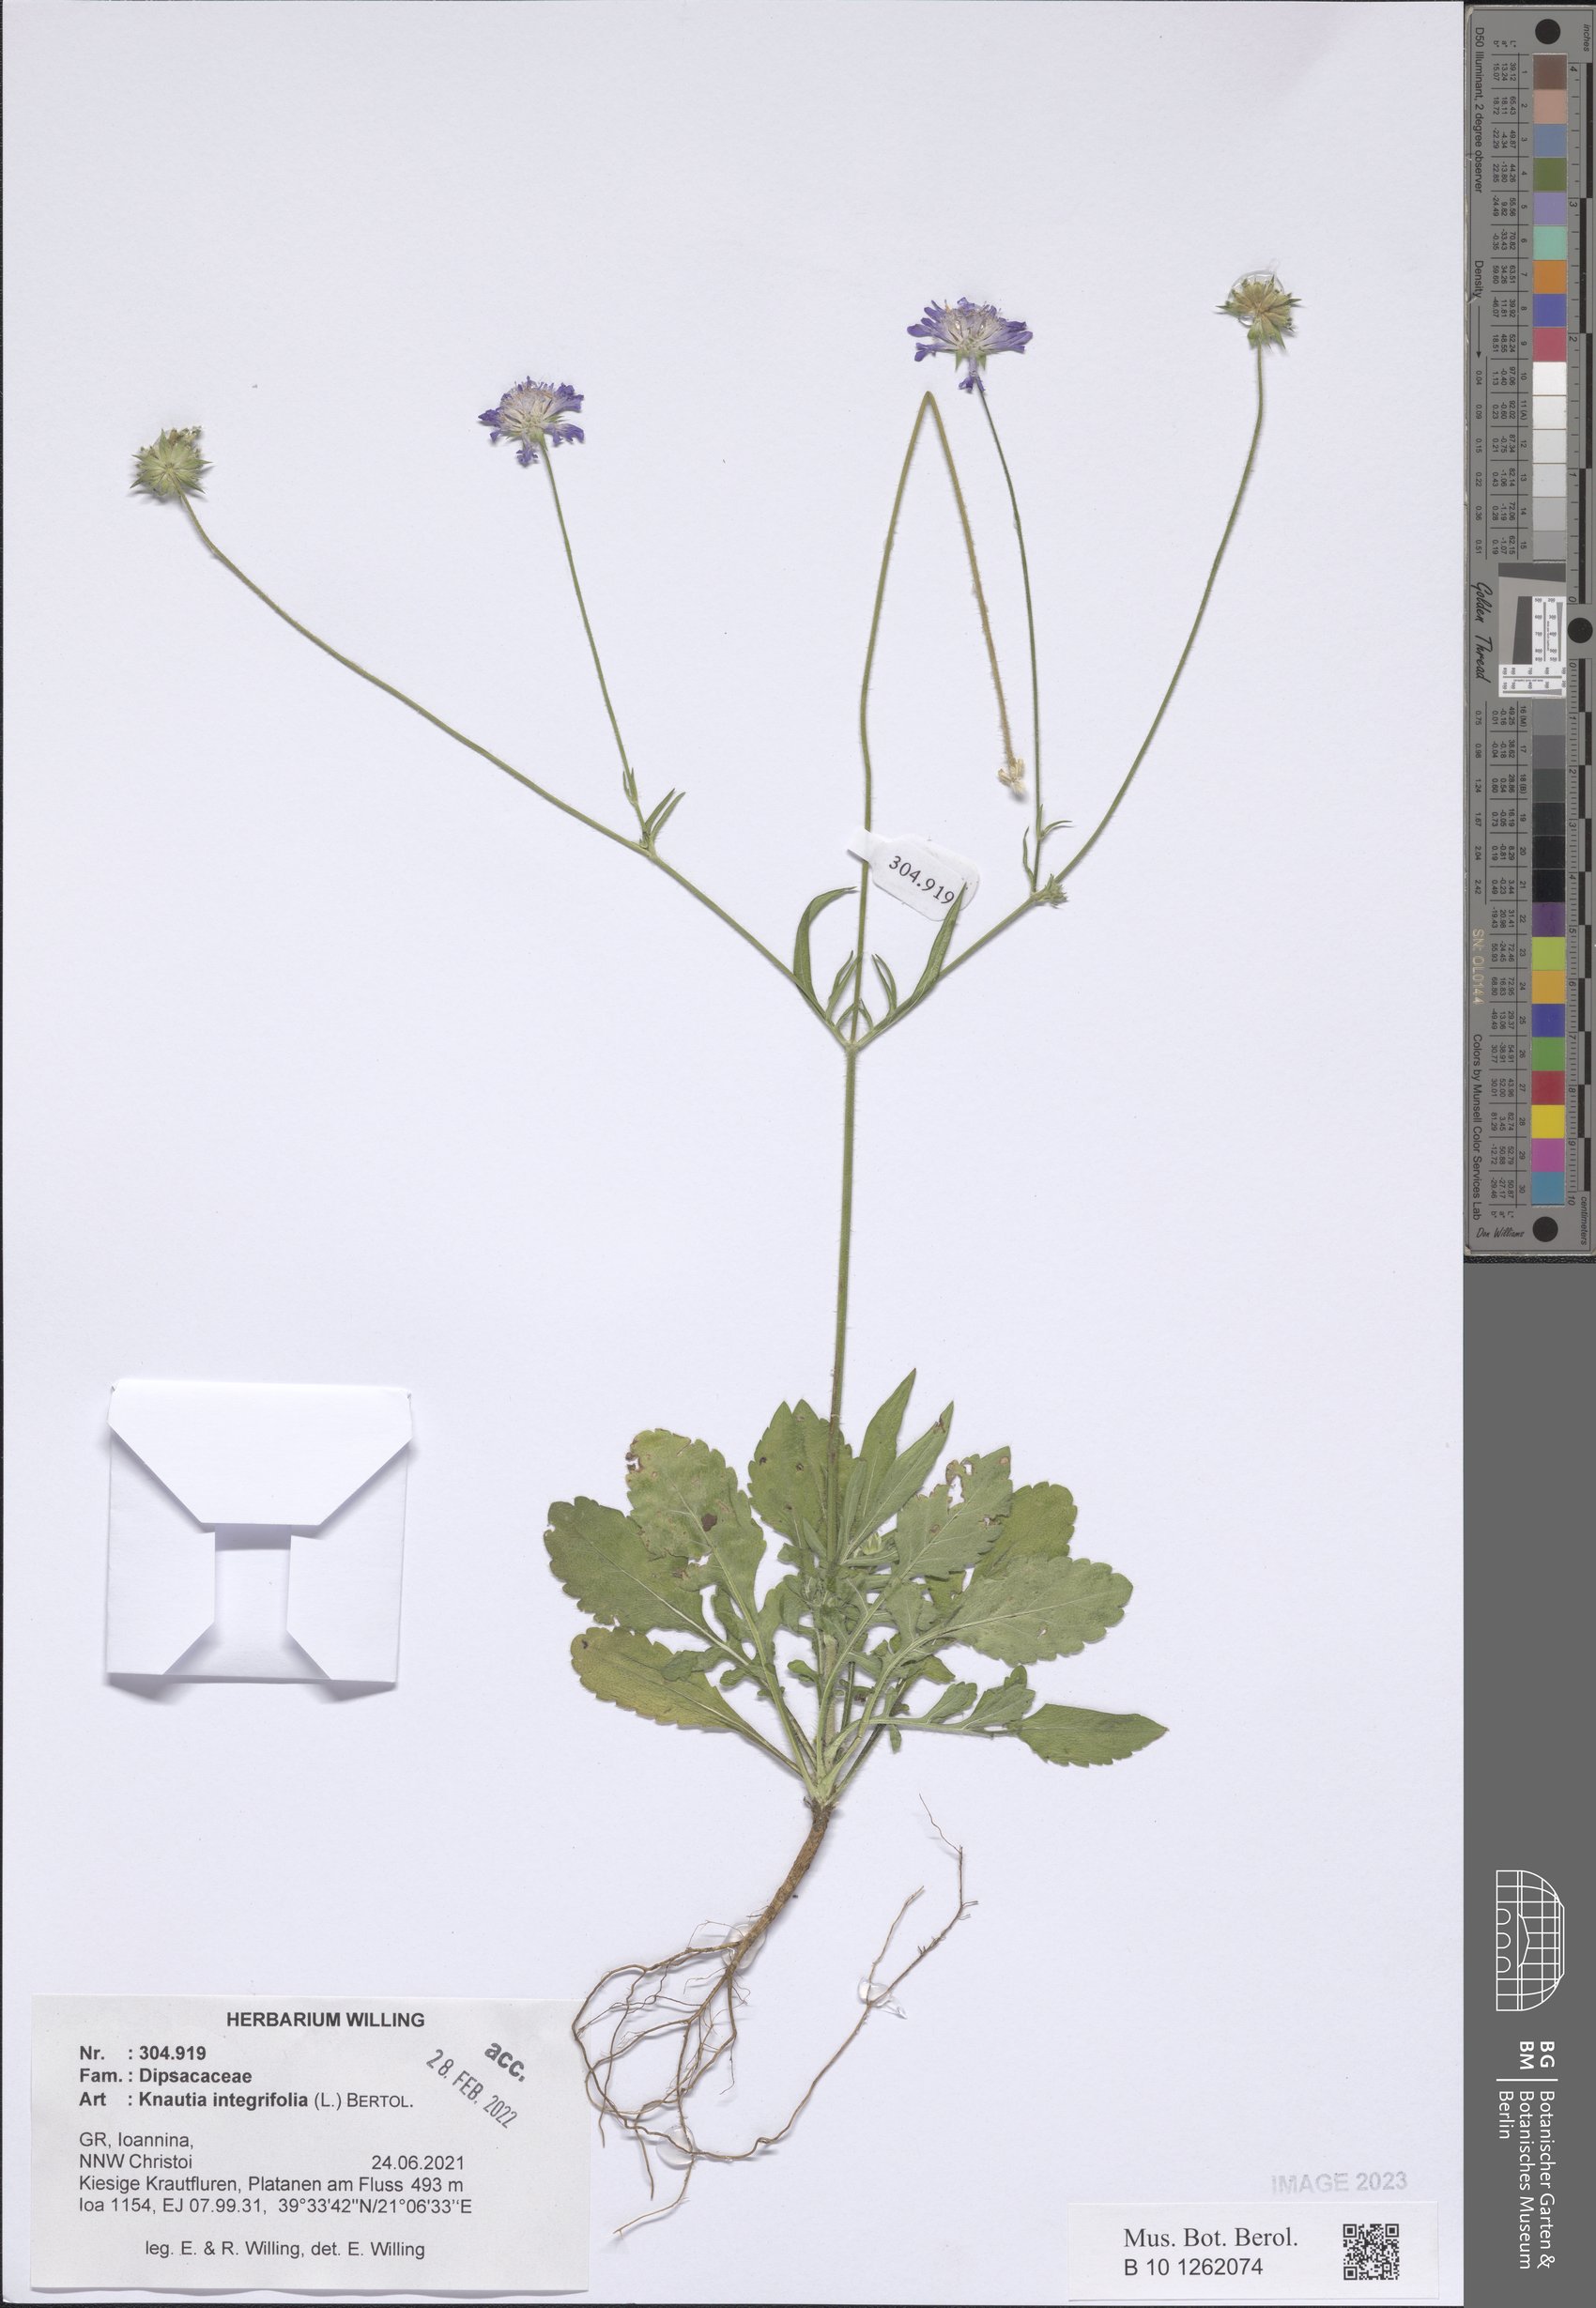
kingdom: Plantae
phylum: Tracheophyta
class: Magnoliopsida
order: Dipsacales
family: Caprifoliaceae
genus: Knautia
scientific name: Knautia integrifolia
